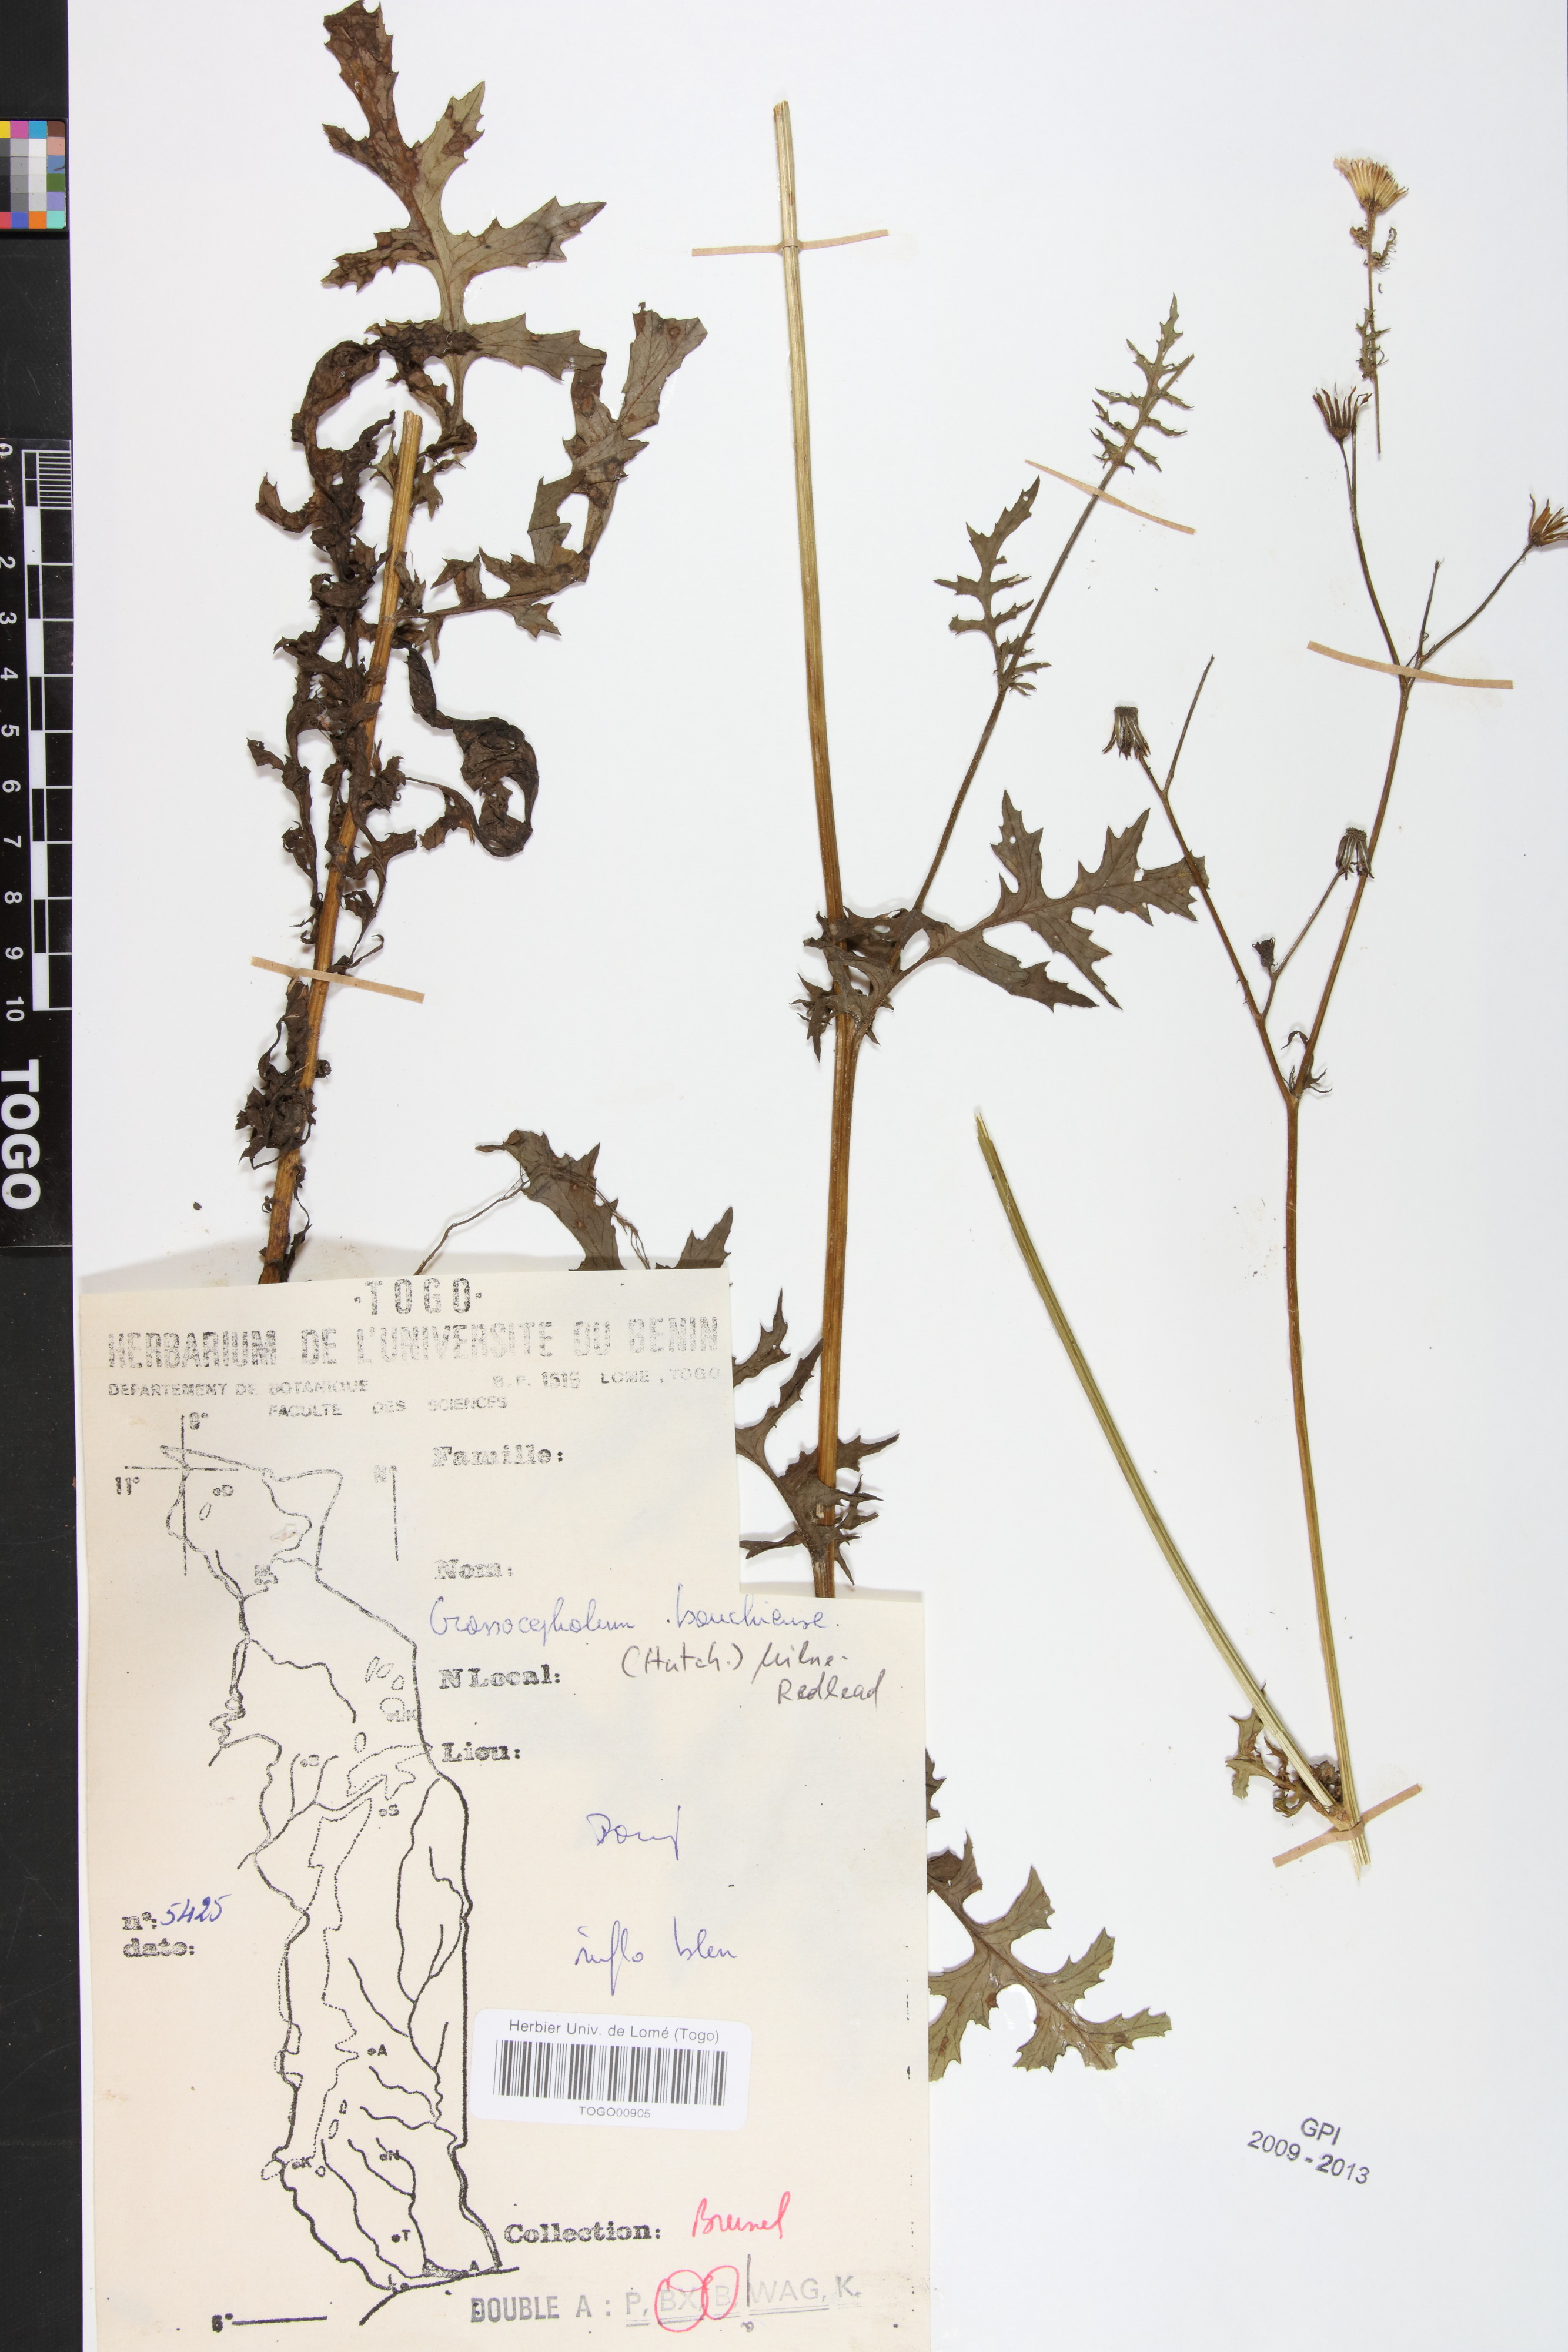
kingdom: Plantae
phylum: Tracheophyta
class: Magnoliopsida
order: Asterales
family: Asteraceae
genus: Crassocephalum
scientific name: Crassocephalum bauchiense
